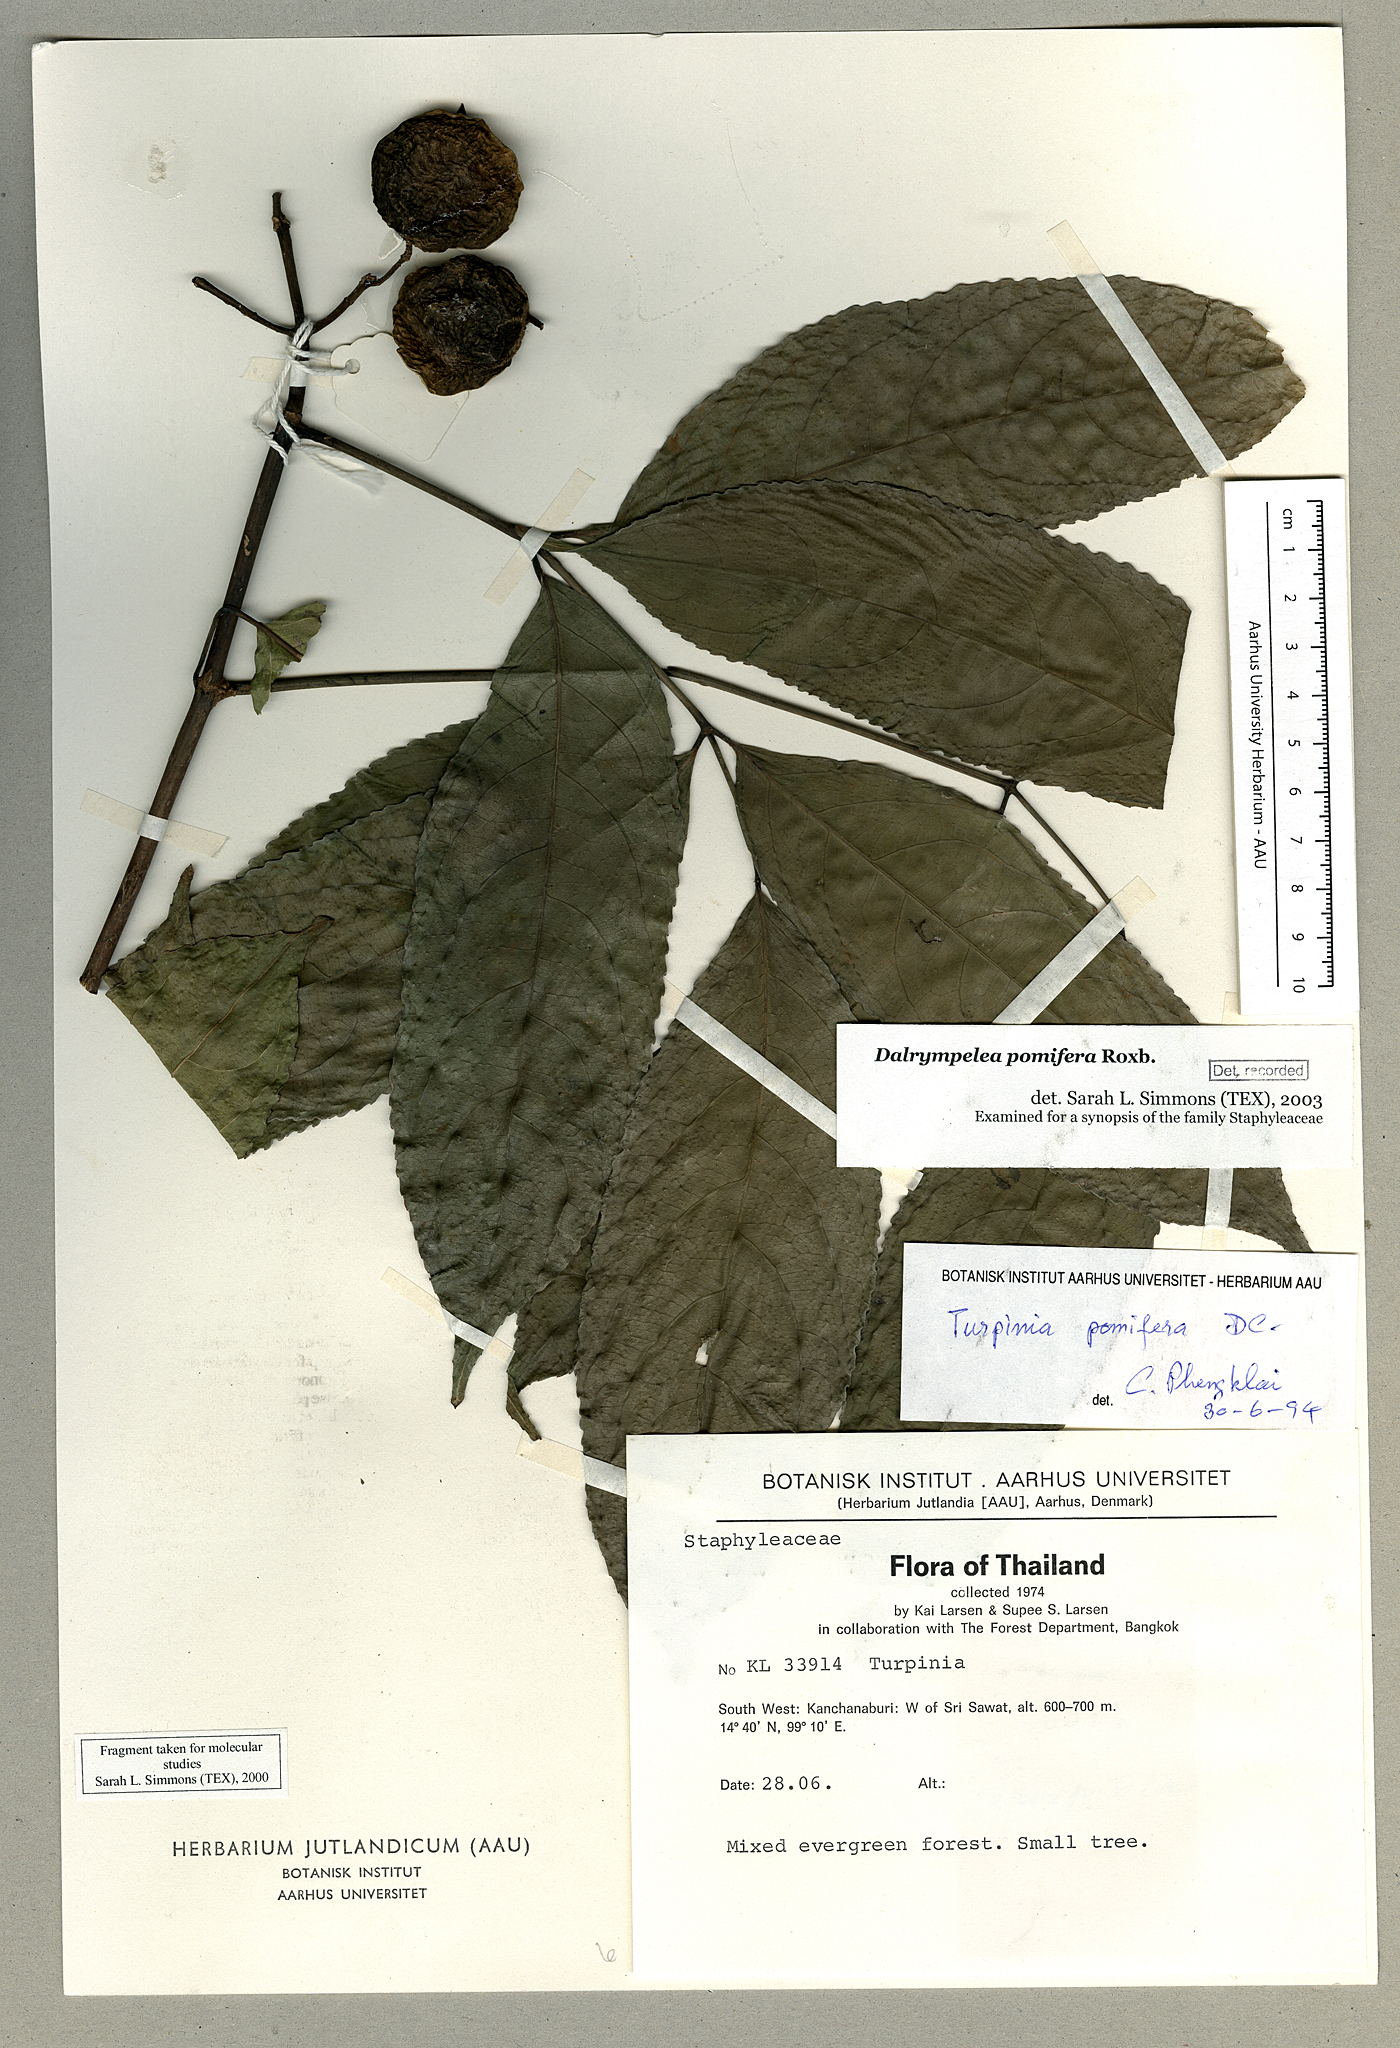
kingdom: Plantae
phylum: Tracheophyta
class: Magnoliopsida
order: Crossosomatales
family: Staphyleaceae
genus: Dalrympelea
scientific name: Dalrympelea pomifera
